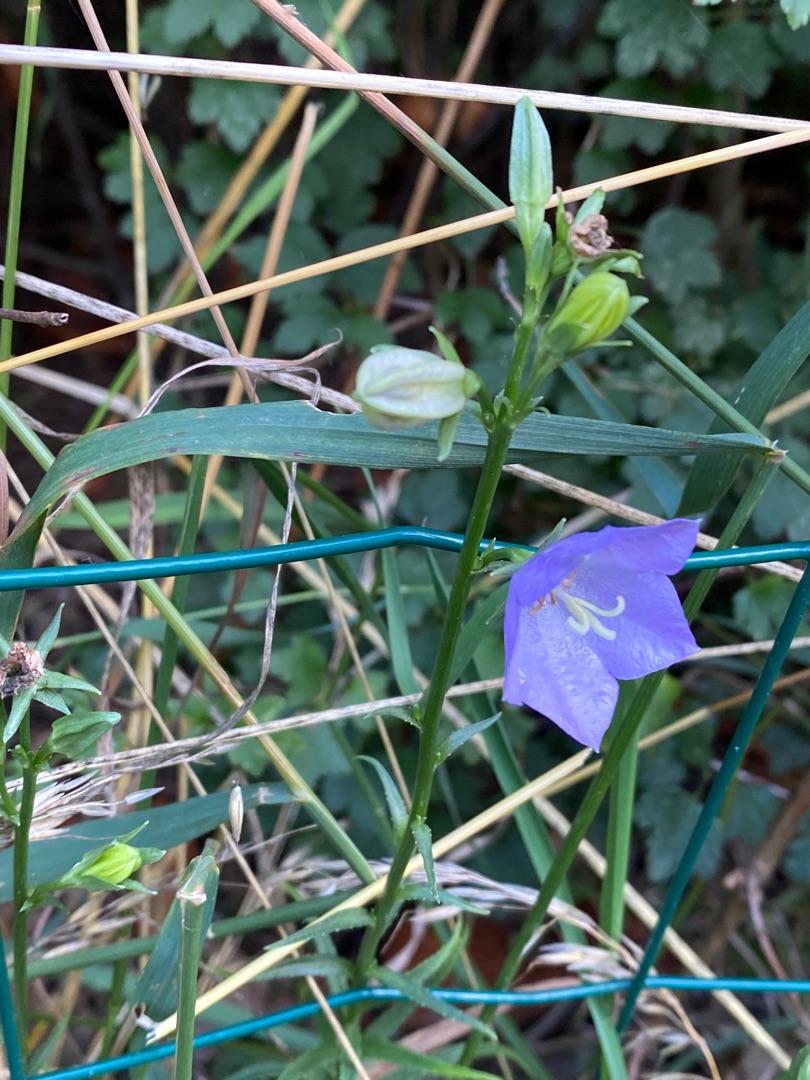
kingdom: Plantae
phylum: Tracheophyta
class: Magnoliopsida
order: Asterales
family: Campanulaceae
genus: Campanula
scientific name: Campanula persicifolia
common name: Smalbladet klokke
